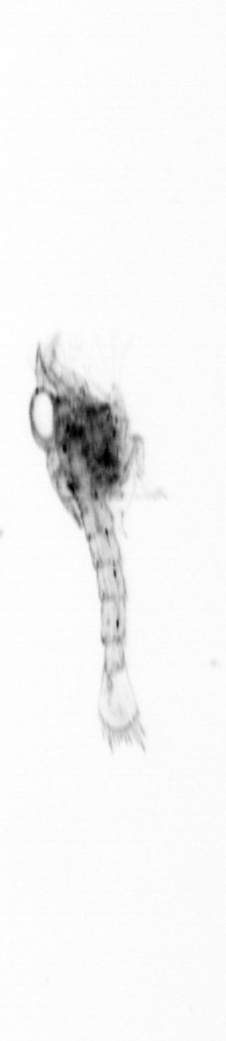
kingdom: Animalia
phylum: Arthropoda
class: Malacostraca
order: Decapoda
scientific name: Decapoda
